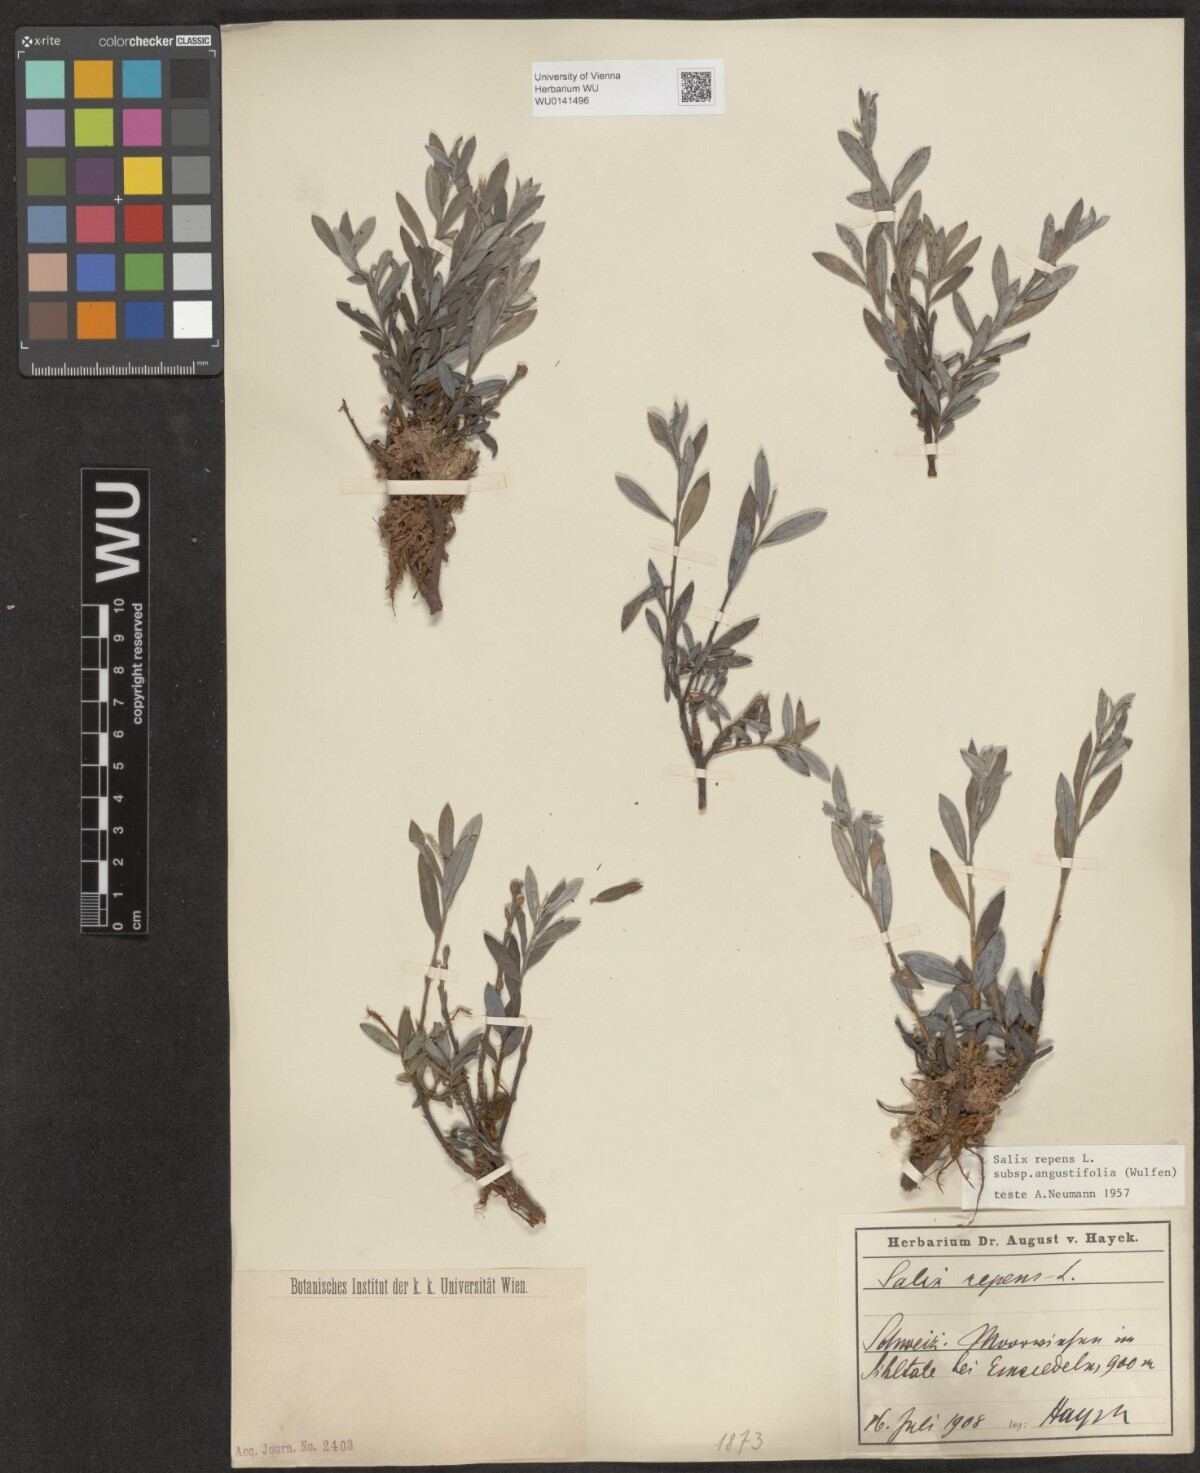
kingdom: Plantae
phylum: Tracheophyta
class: Magnoliopsida
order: Malpighiales
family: Salicaceae
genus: Salix
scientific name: Salix rosmarinifolia
